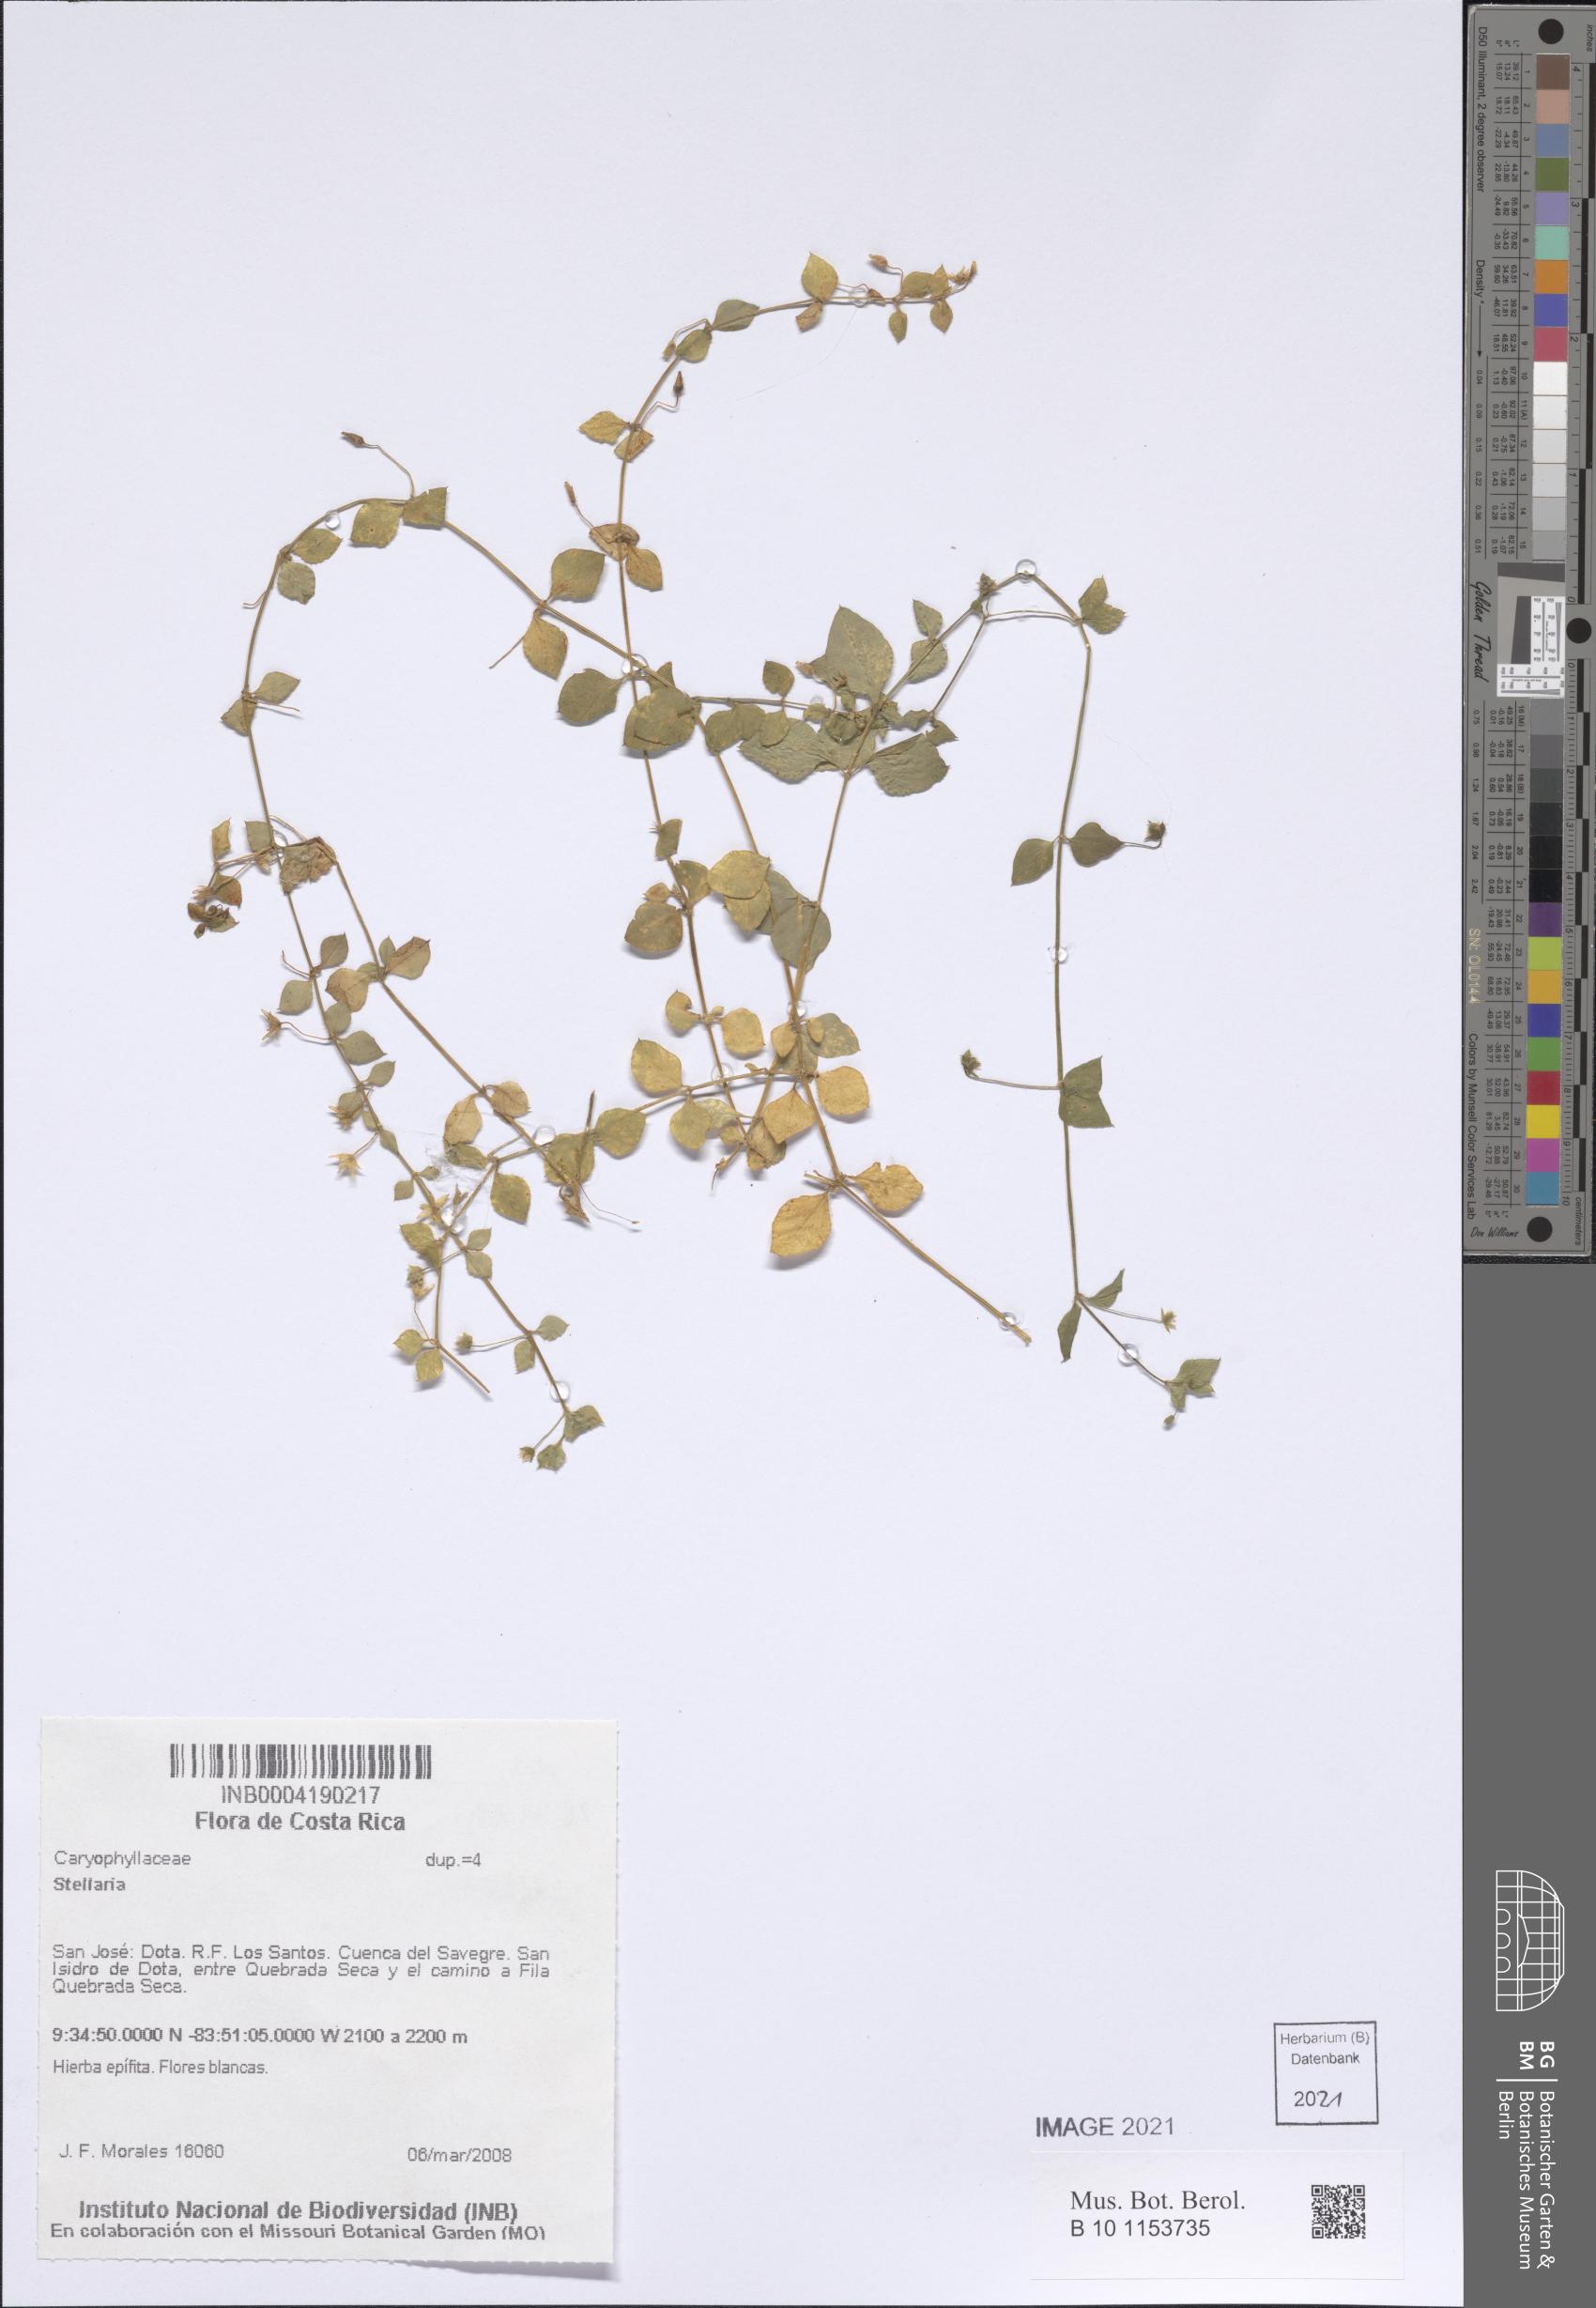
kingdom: Plantae
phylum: Tracheophyta
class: Magnoliopsida
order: Caryophyllales
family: Caryophyllaceae
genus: Stellaria
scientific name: Stellaria ovata
